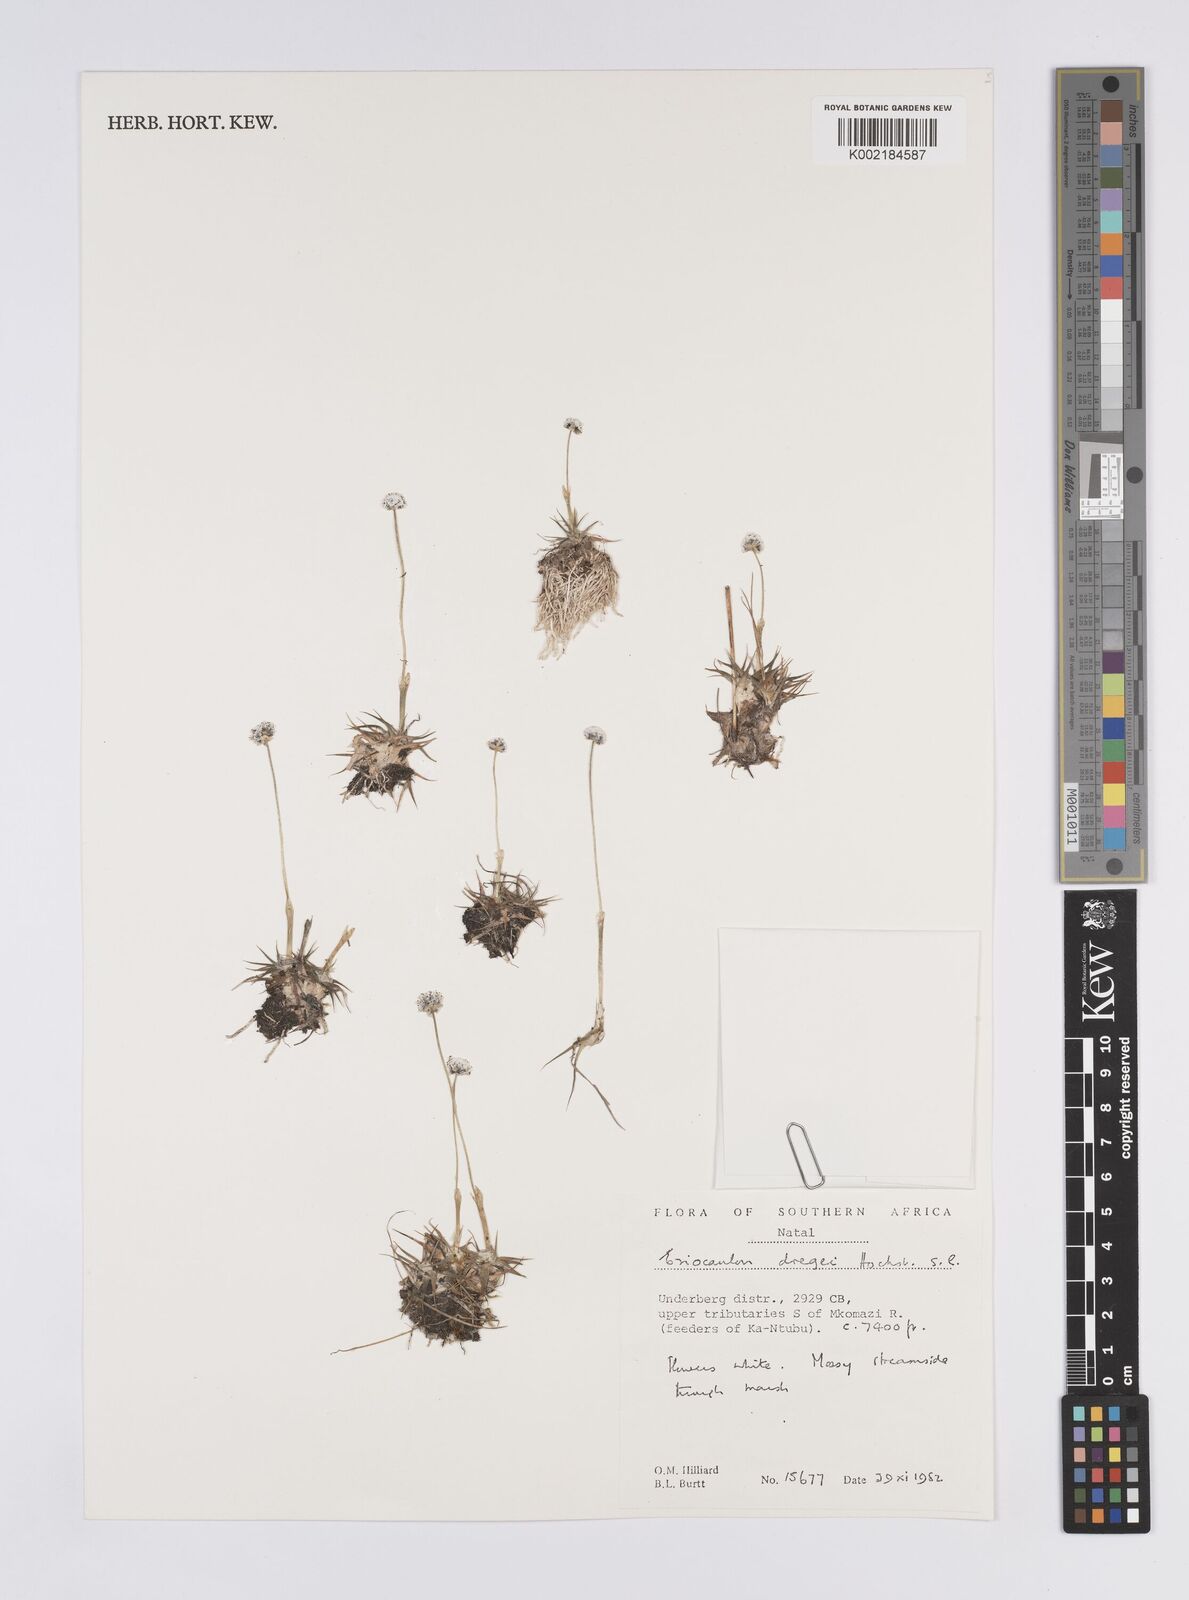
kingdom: Plantae
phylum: Tracheophyta
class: Liliopsida
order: Poales
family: Eriocaulaceae
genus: Eriocaulon
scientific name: Eriocaulon sonderianum
